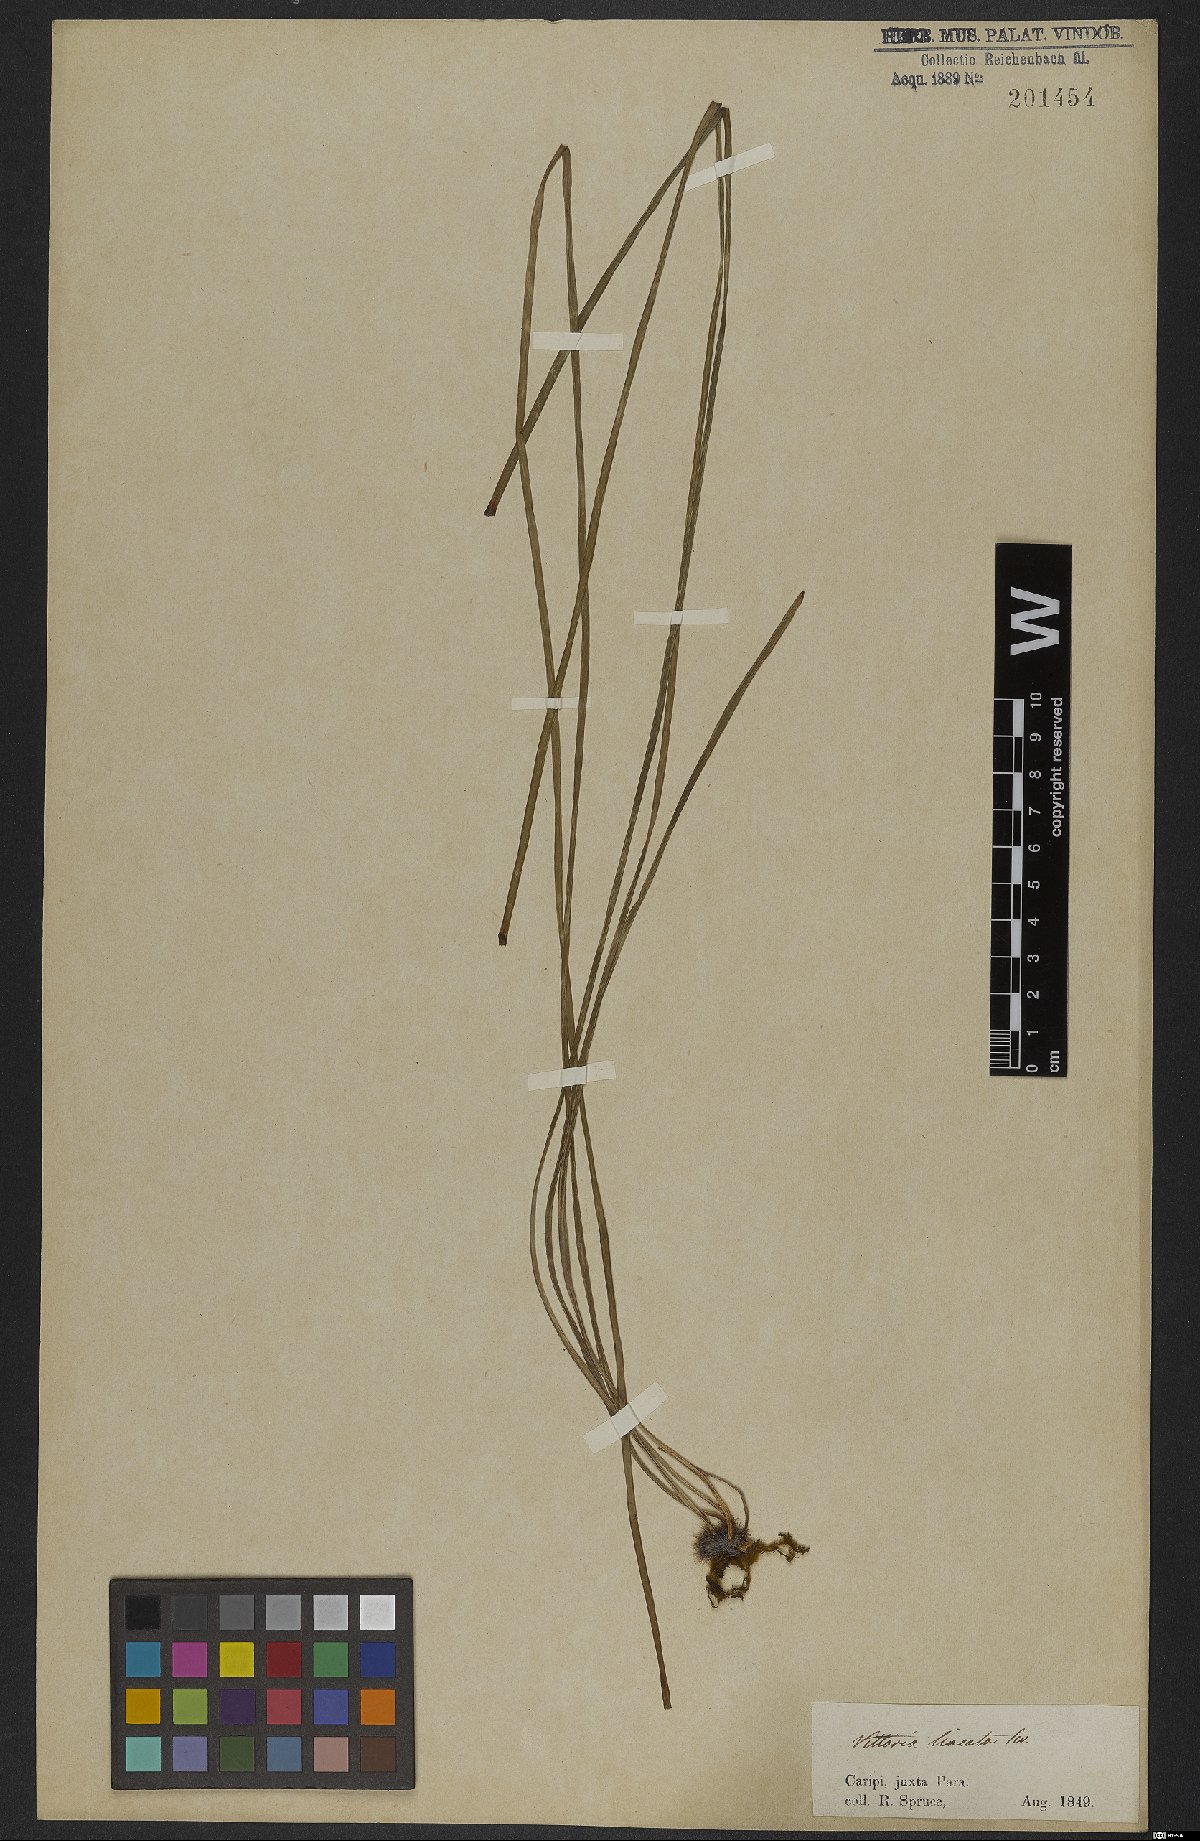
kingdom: Plantae
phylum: Tracheophyta
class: Polypodiopsida
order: Polypodiales
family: Pteridaceae
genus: Vittaria
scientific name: Vittaria lineata
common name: Shoestring fern
